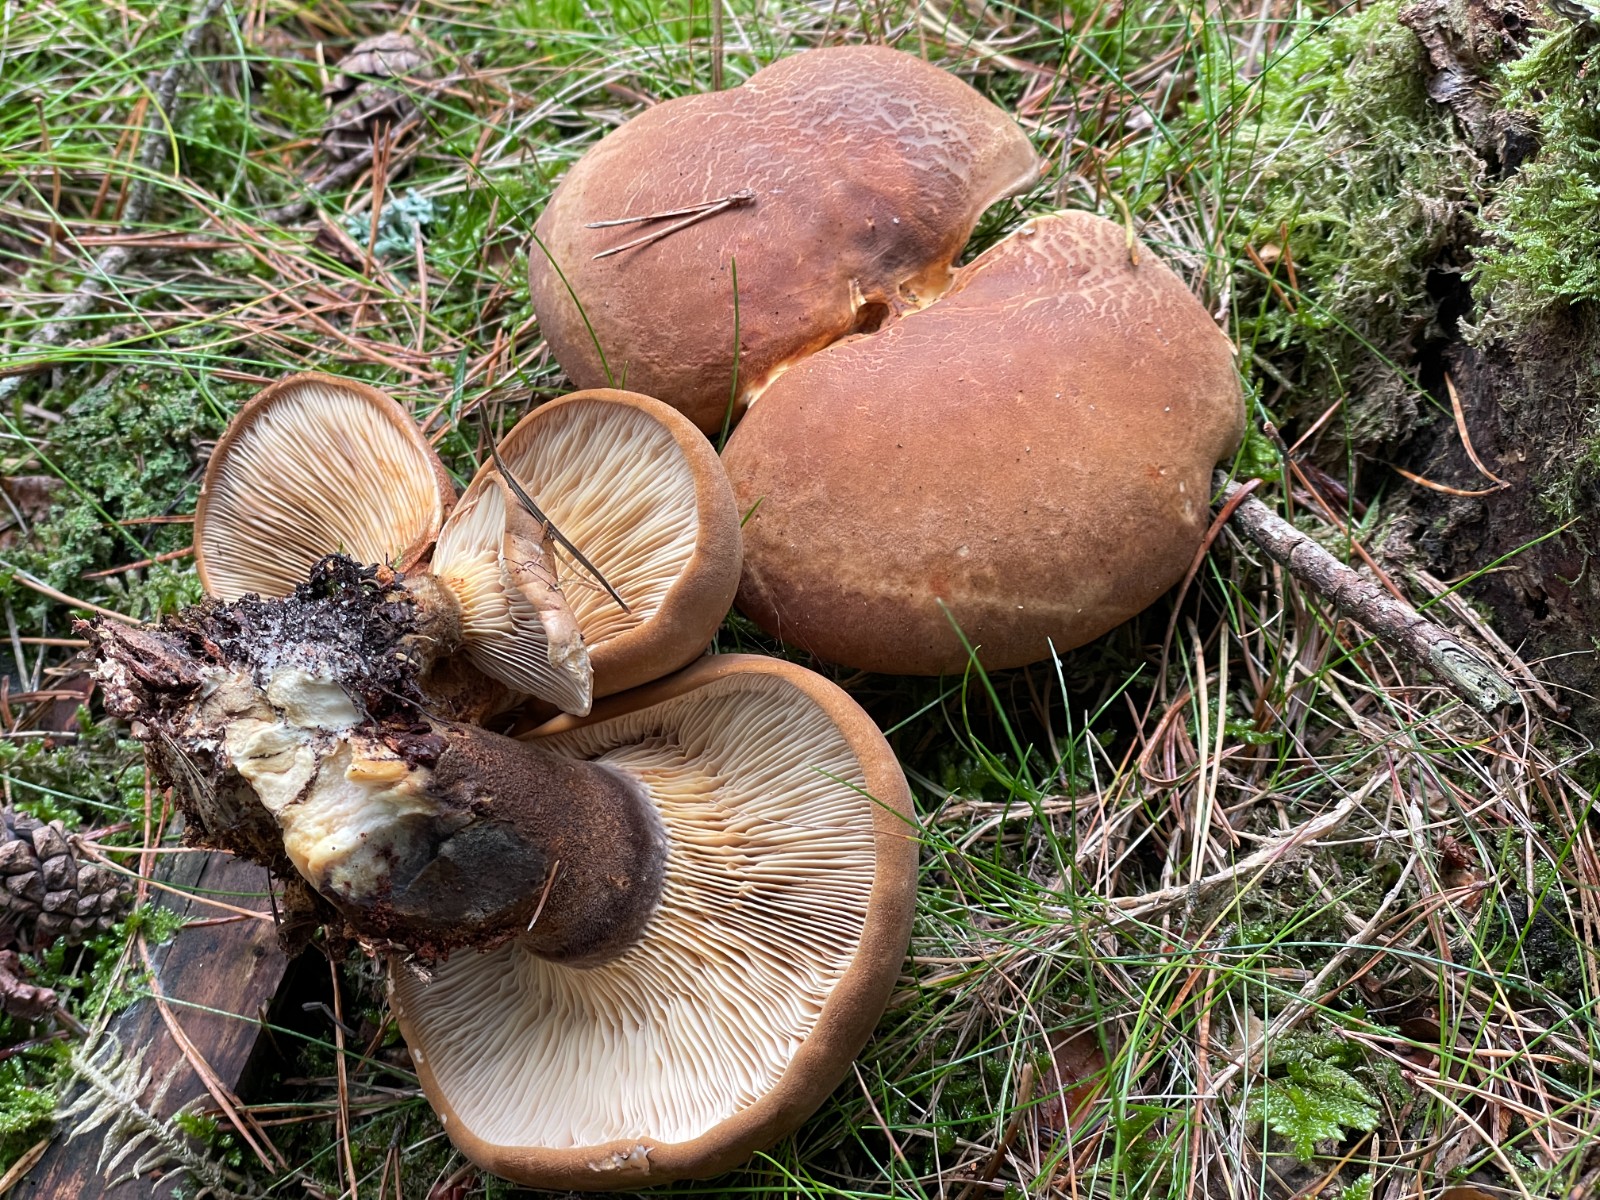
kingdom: Fungi
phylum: Basidiomycota
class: Agaricomycetes
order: Boletales
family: Tapinellaceae
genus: Tapinella
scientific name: Tapinella atrotomentosa
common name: sortfiltet viftesvamp
